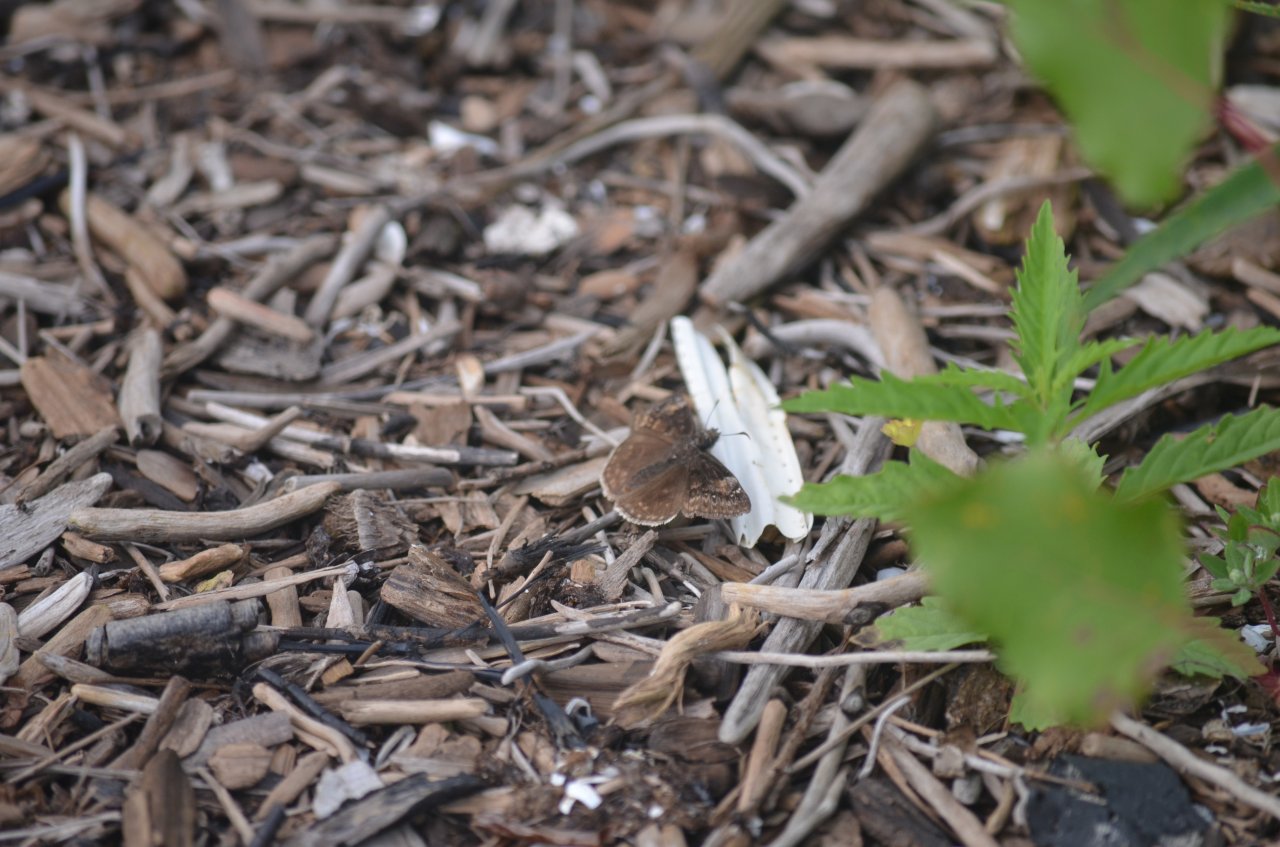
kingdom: Animalia
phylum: Arthropoda
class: Insecta
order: Lepidoptera
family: Hesperiidae
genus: Gesta
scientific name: Gesta
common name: Wild Indigo Duskywing
